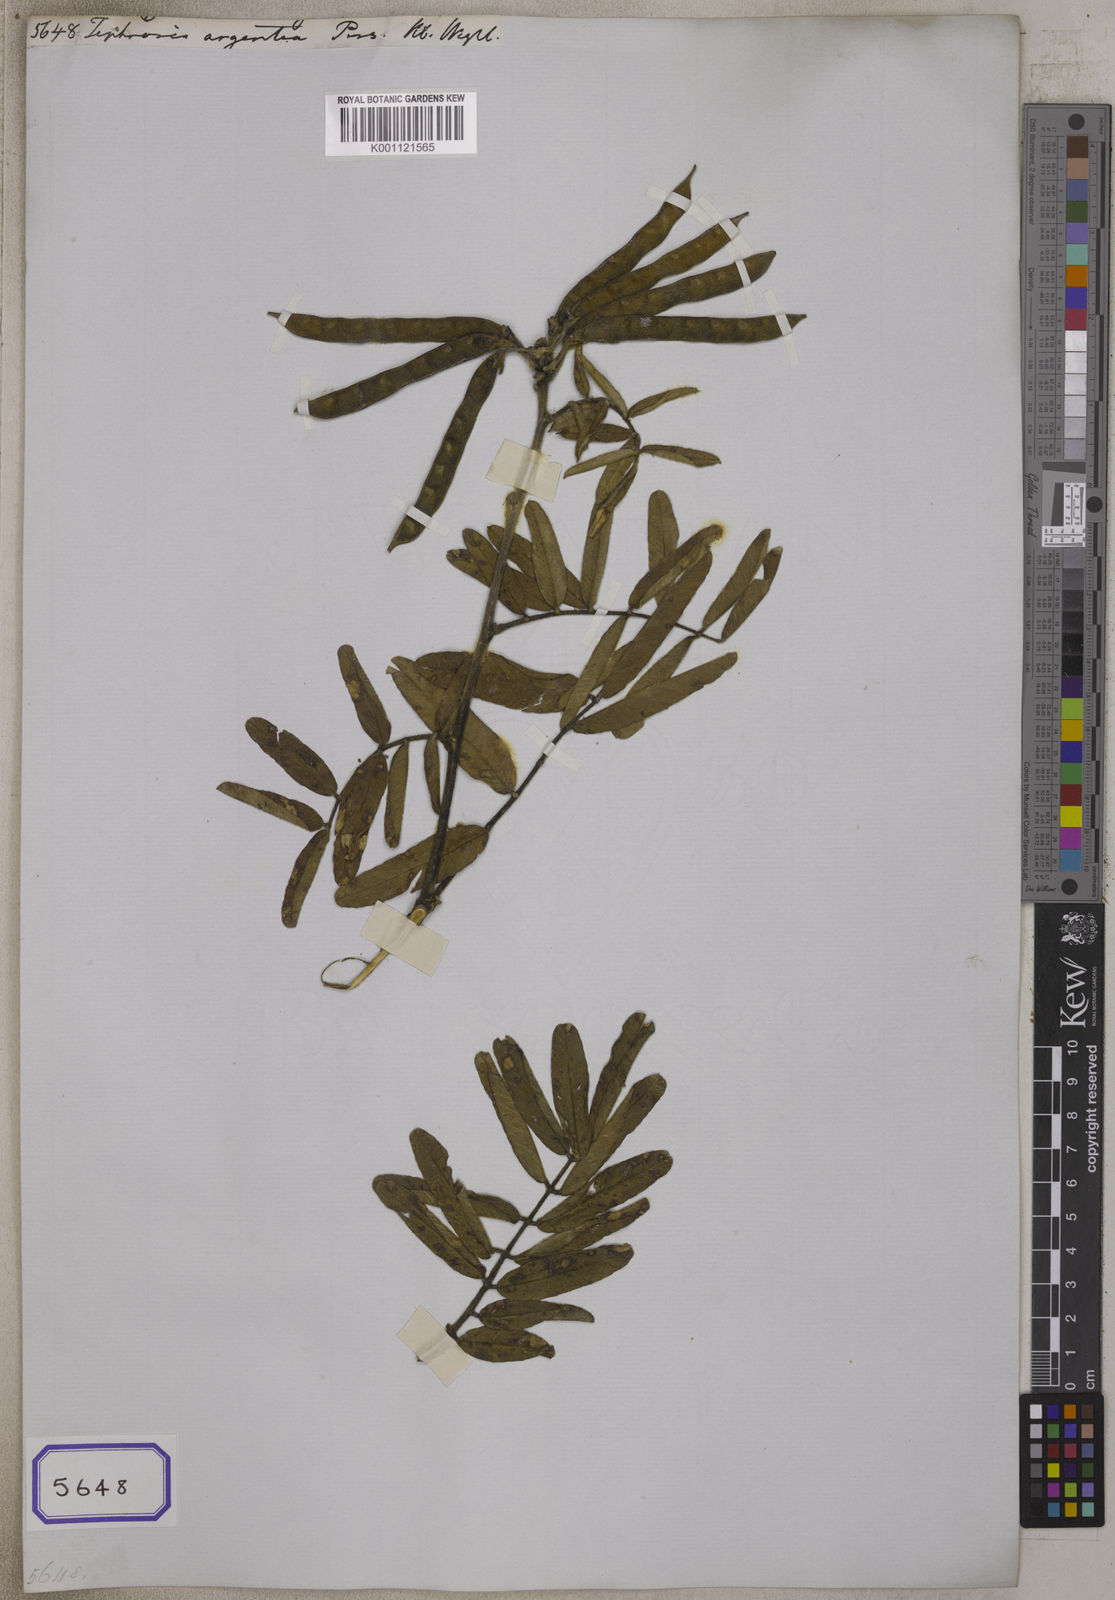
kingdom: Plantae
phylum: Tracheophyta
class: Magnoliopsida
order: Fabales
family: Fabaceae
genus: Tephrosia
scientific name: Tephrosia fusca
